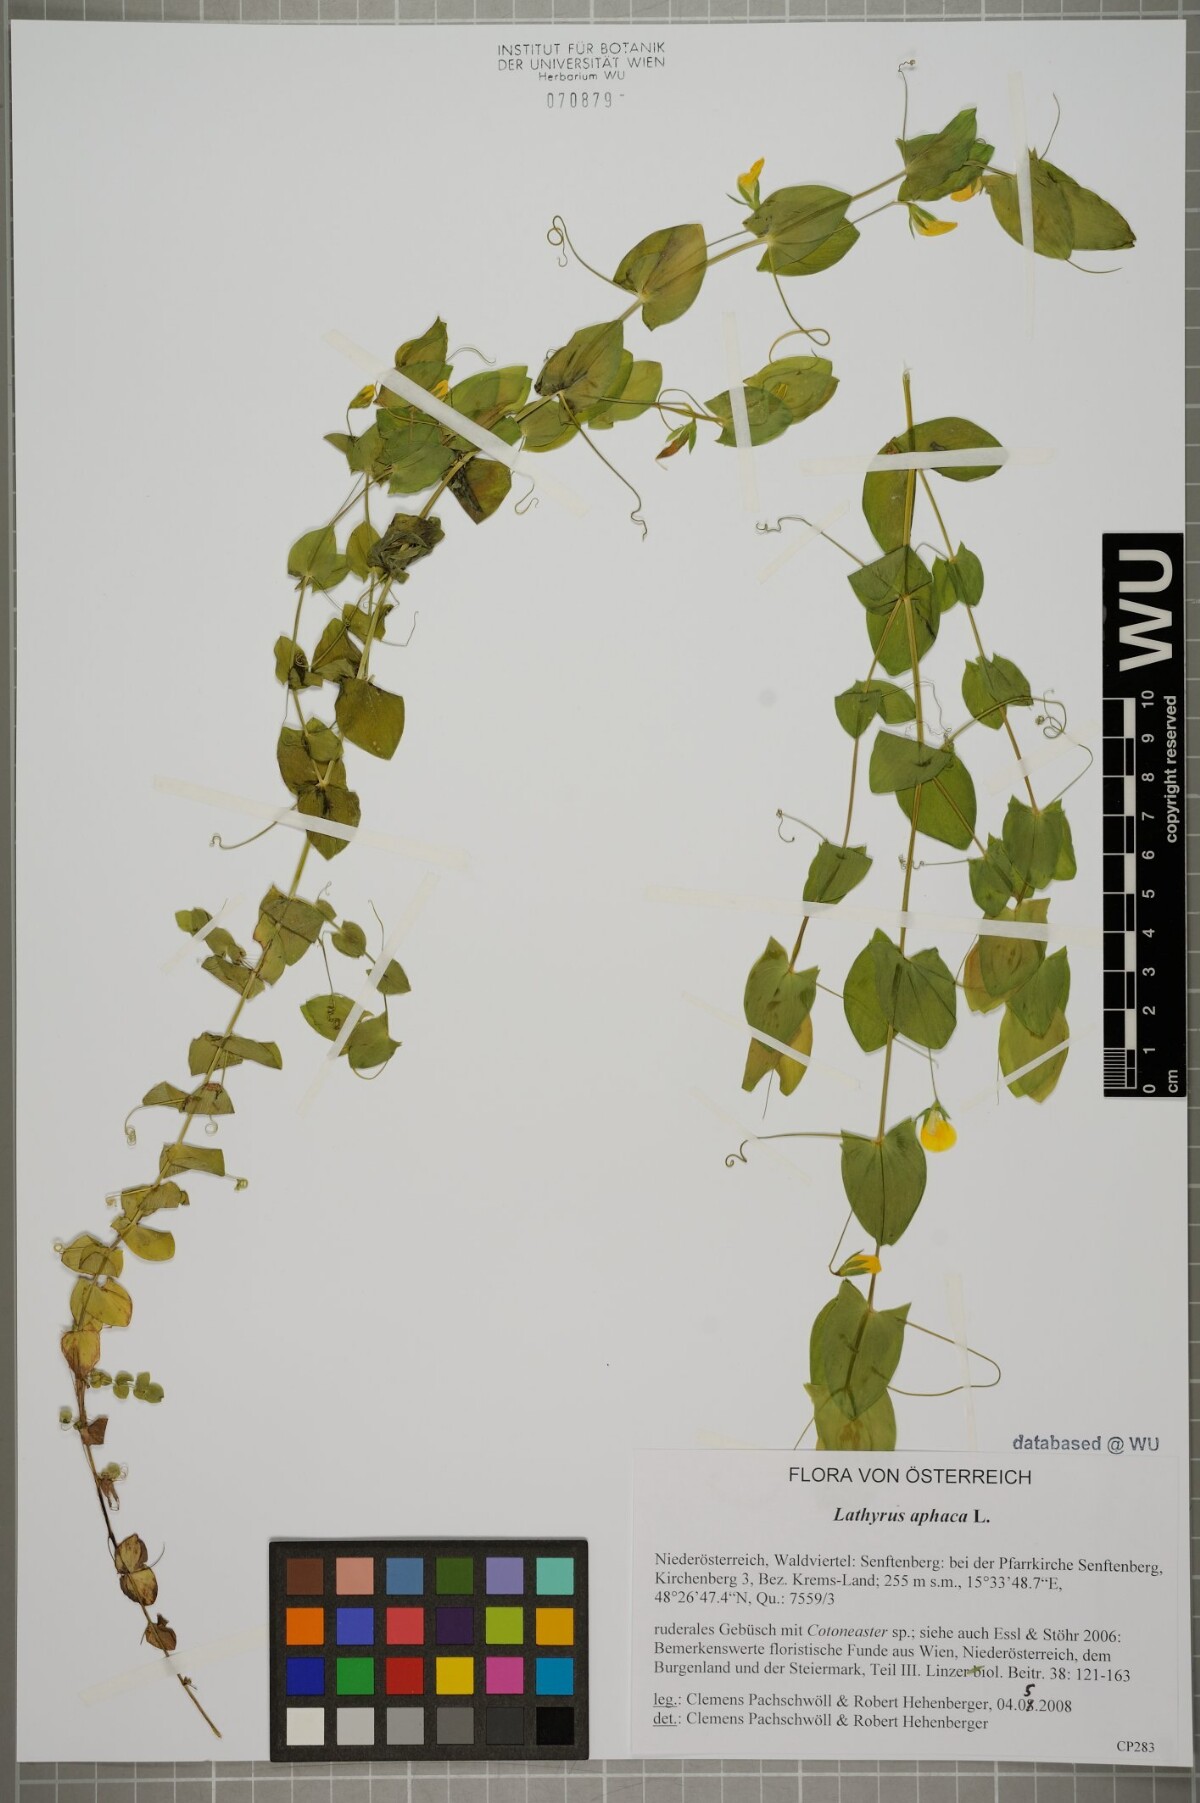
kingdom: Plantae
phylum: Tracheophyta
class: Magnoliopsida
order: Fabales
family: Fabaceae
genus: Lathyrus
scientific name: Lathyrus aphaca
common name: Yellow vetchling
